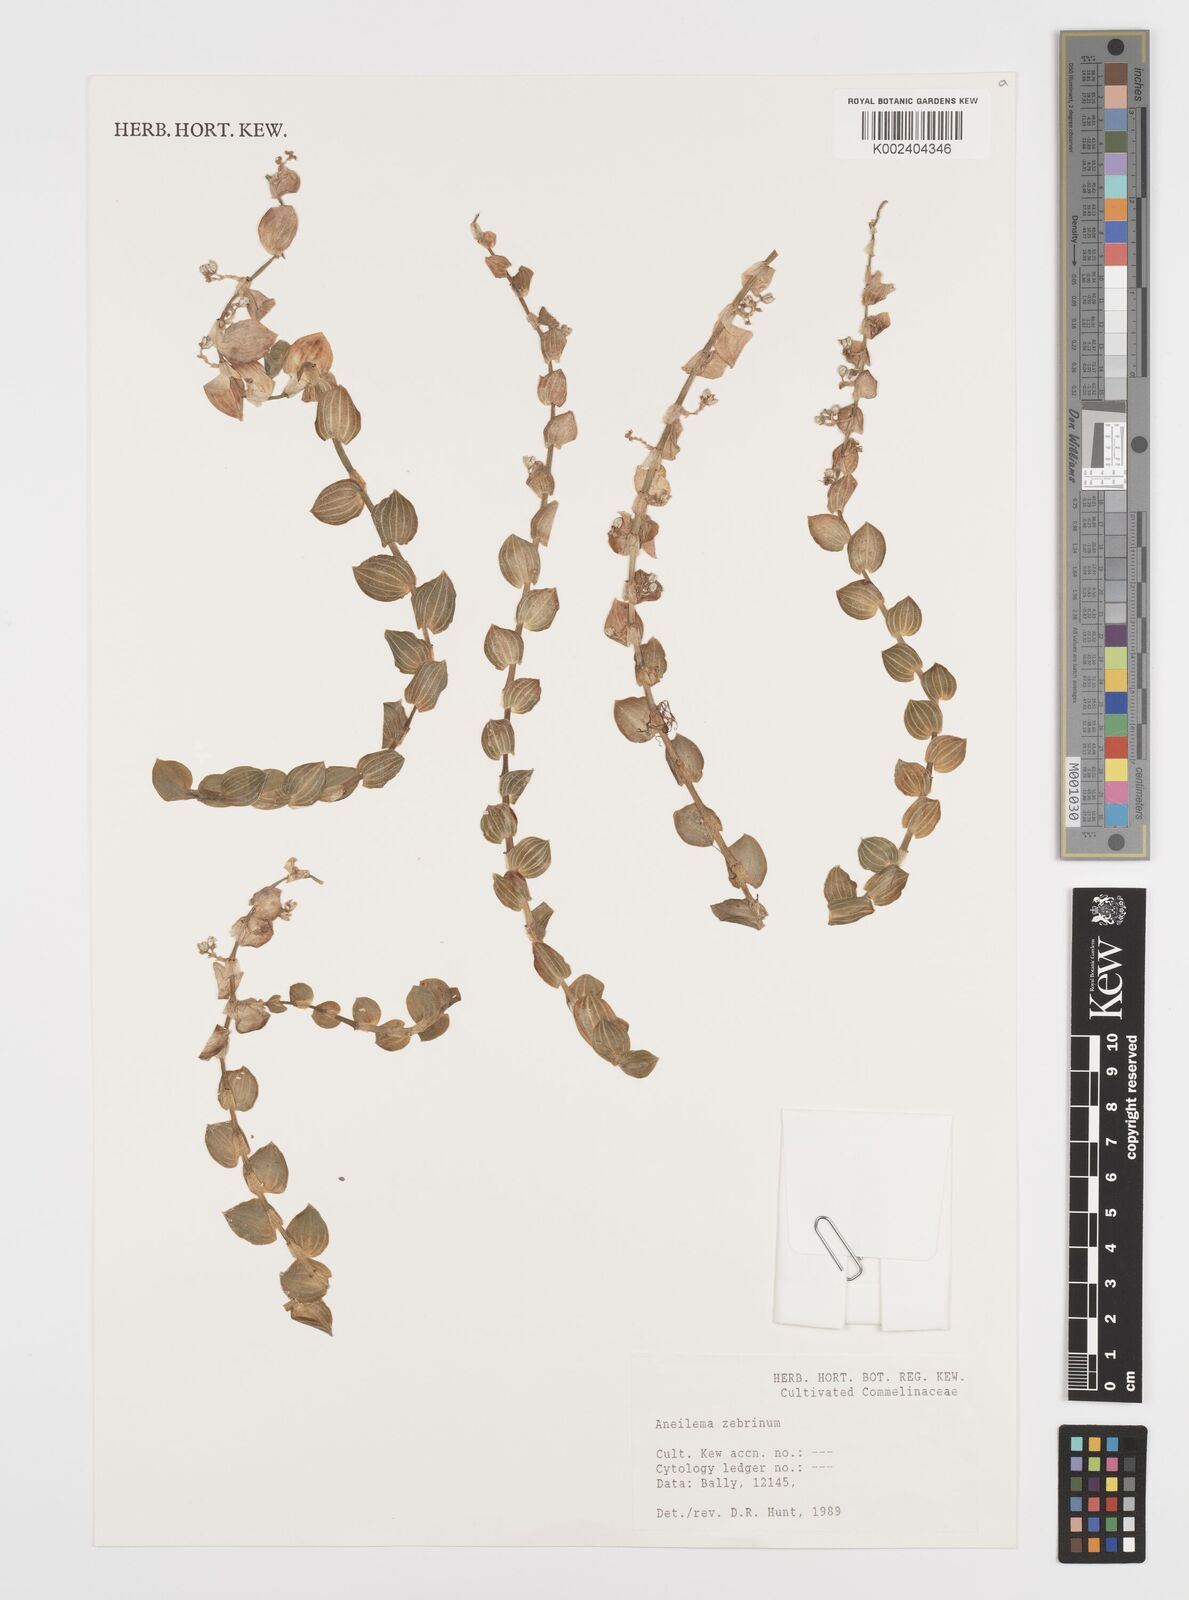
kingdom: Plantae
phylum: Tracheophyta
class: Liliopsida
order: Commelinales
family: Commelinaceae
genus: Aneilema
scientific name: Aneilema zebrinum
